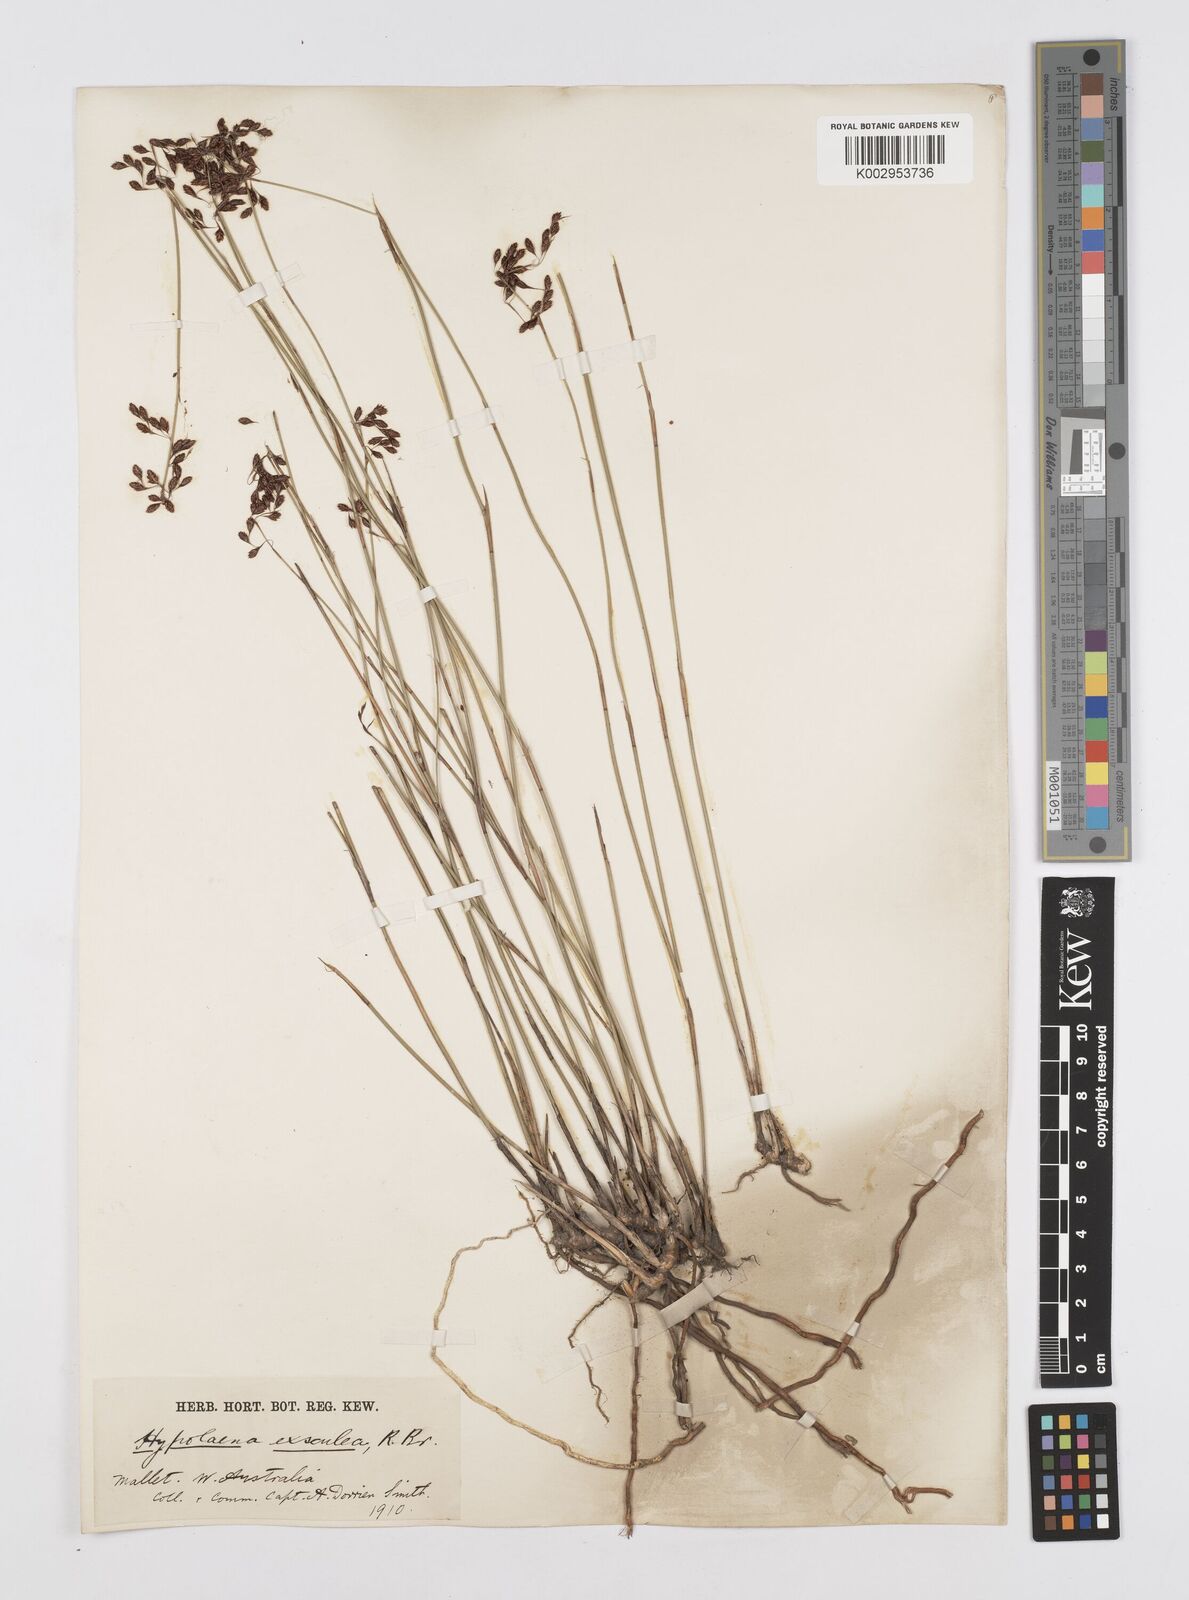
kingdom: Plantae
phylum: Tracheophyta
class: Liliopsida
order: Poales
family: Restionaceae
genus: Hypolaena
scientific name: Hypolaena exsulca
